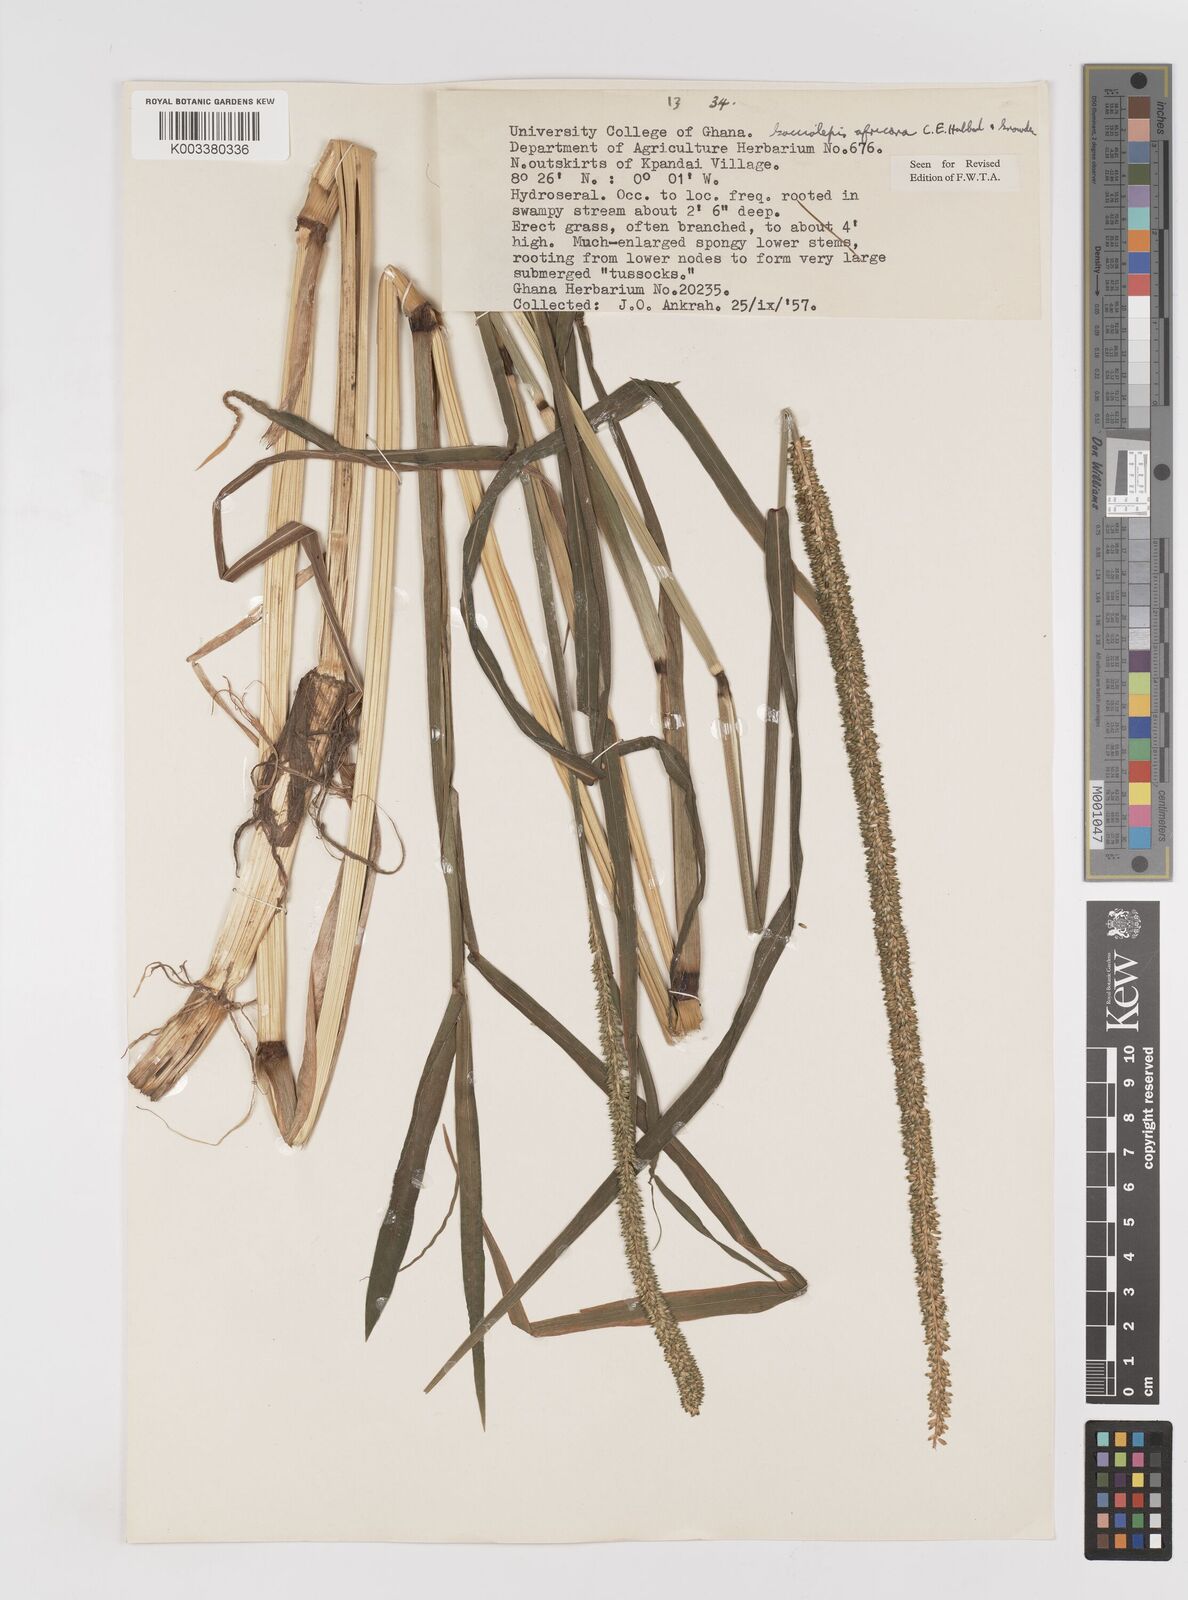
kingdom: Plantae
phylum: Tracheophyta
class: Liliopsida
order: Poales
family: Poaceae
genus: Sacciolepis
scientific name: Sacciolepis africana
